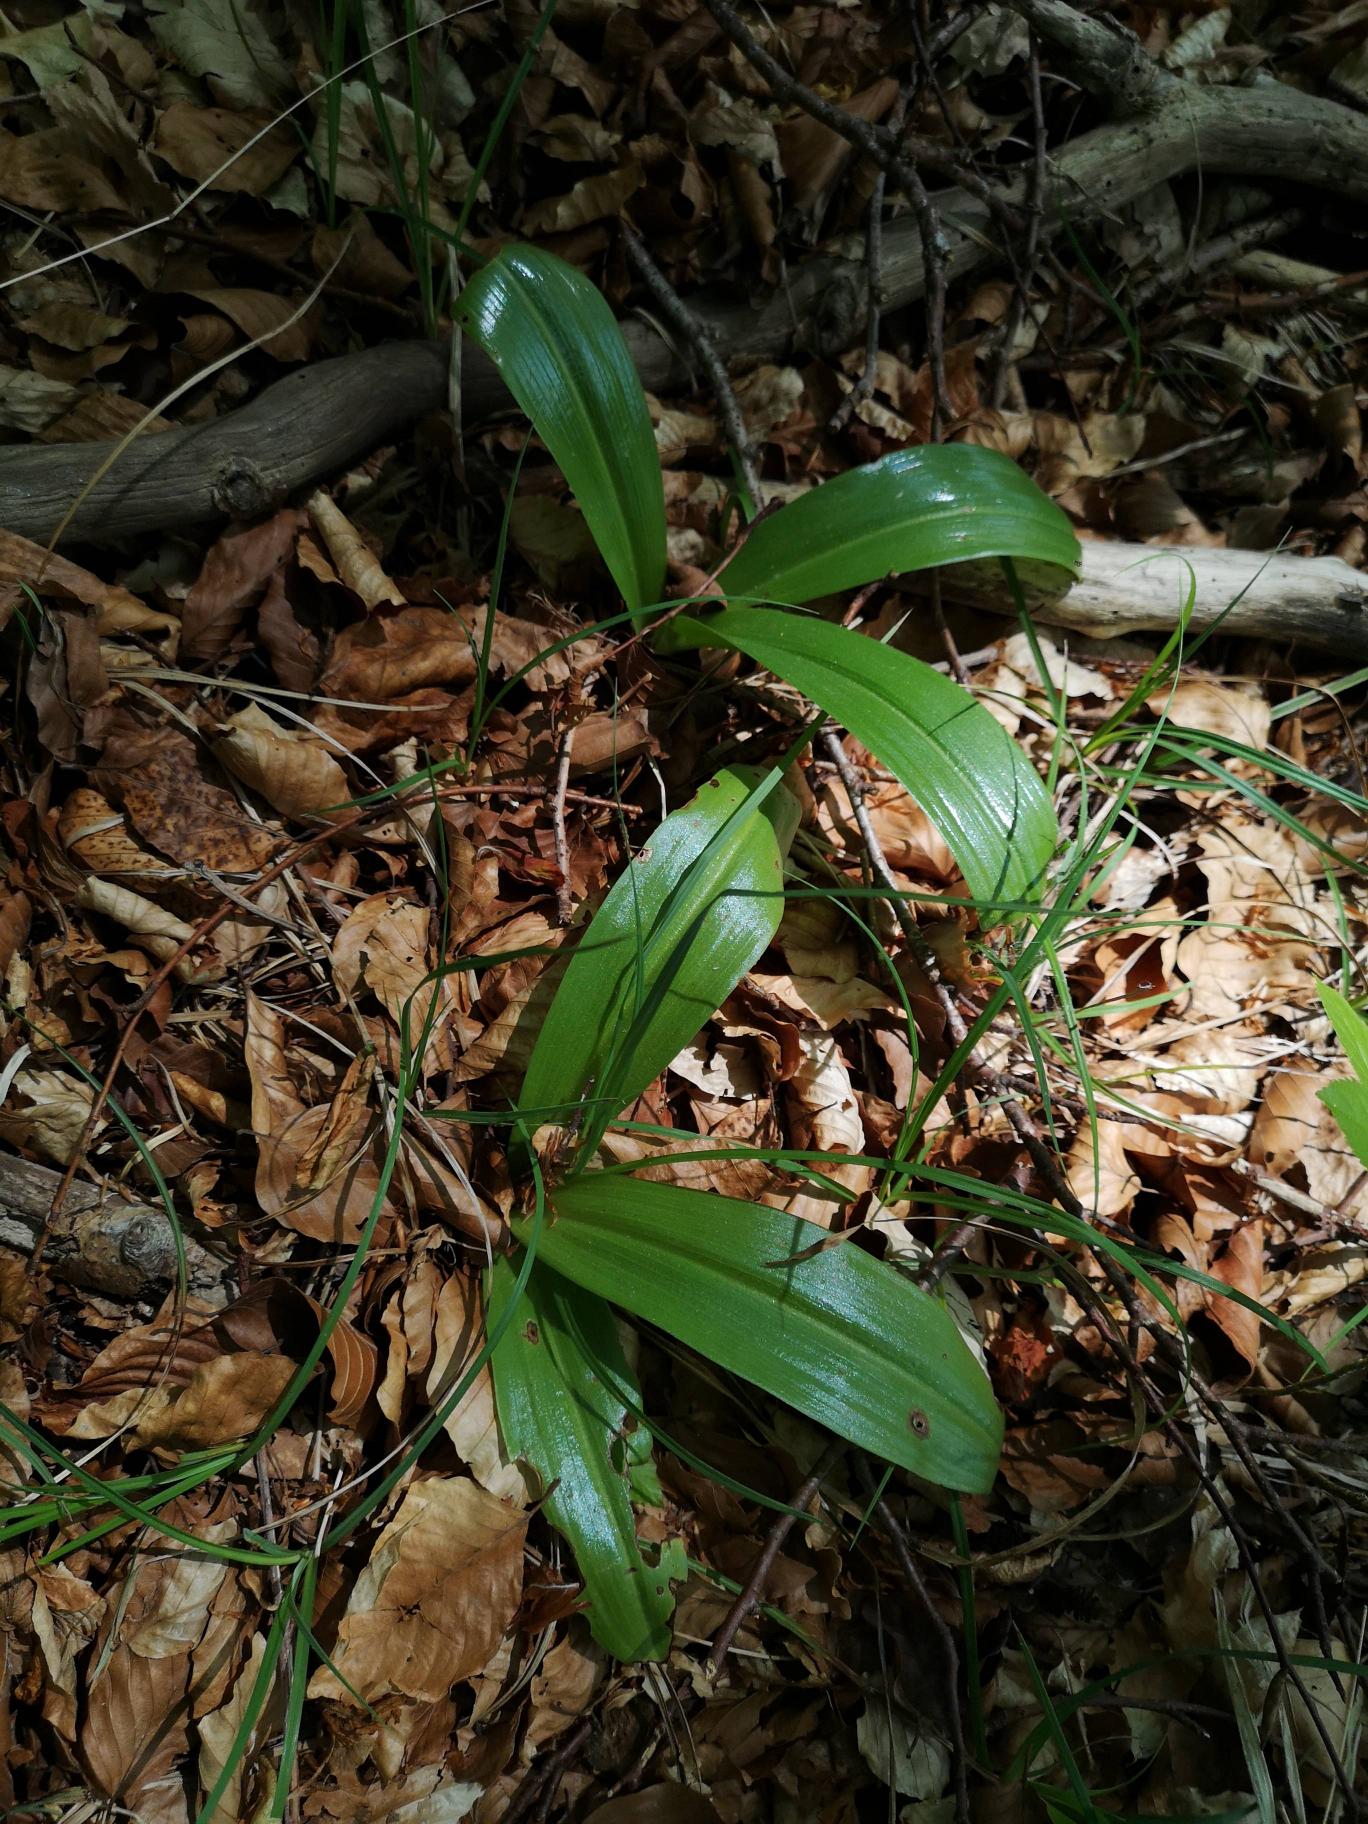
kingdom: Plantae
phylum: Tracheophyta
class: Liliopsida
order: Asparagales
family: Orchidaceae
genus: Orchis
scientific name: Orchis purpurea
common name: Stor gøgeurt
